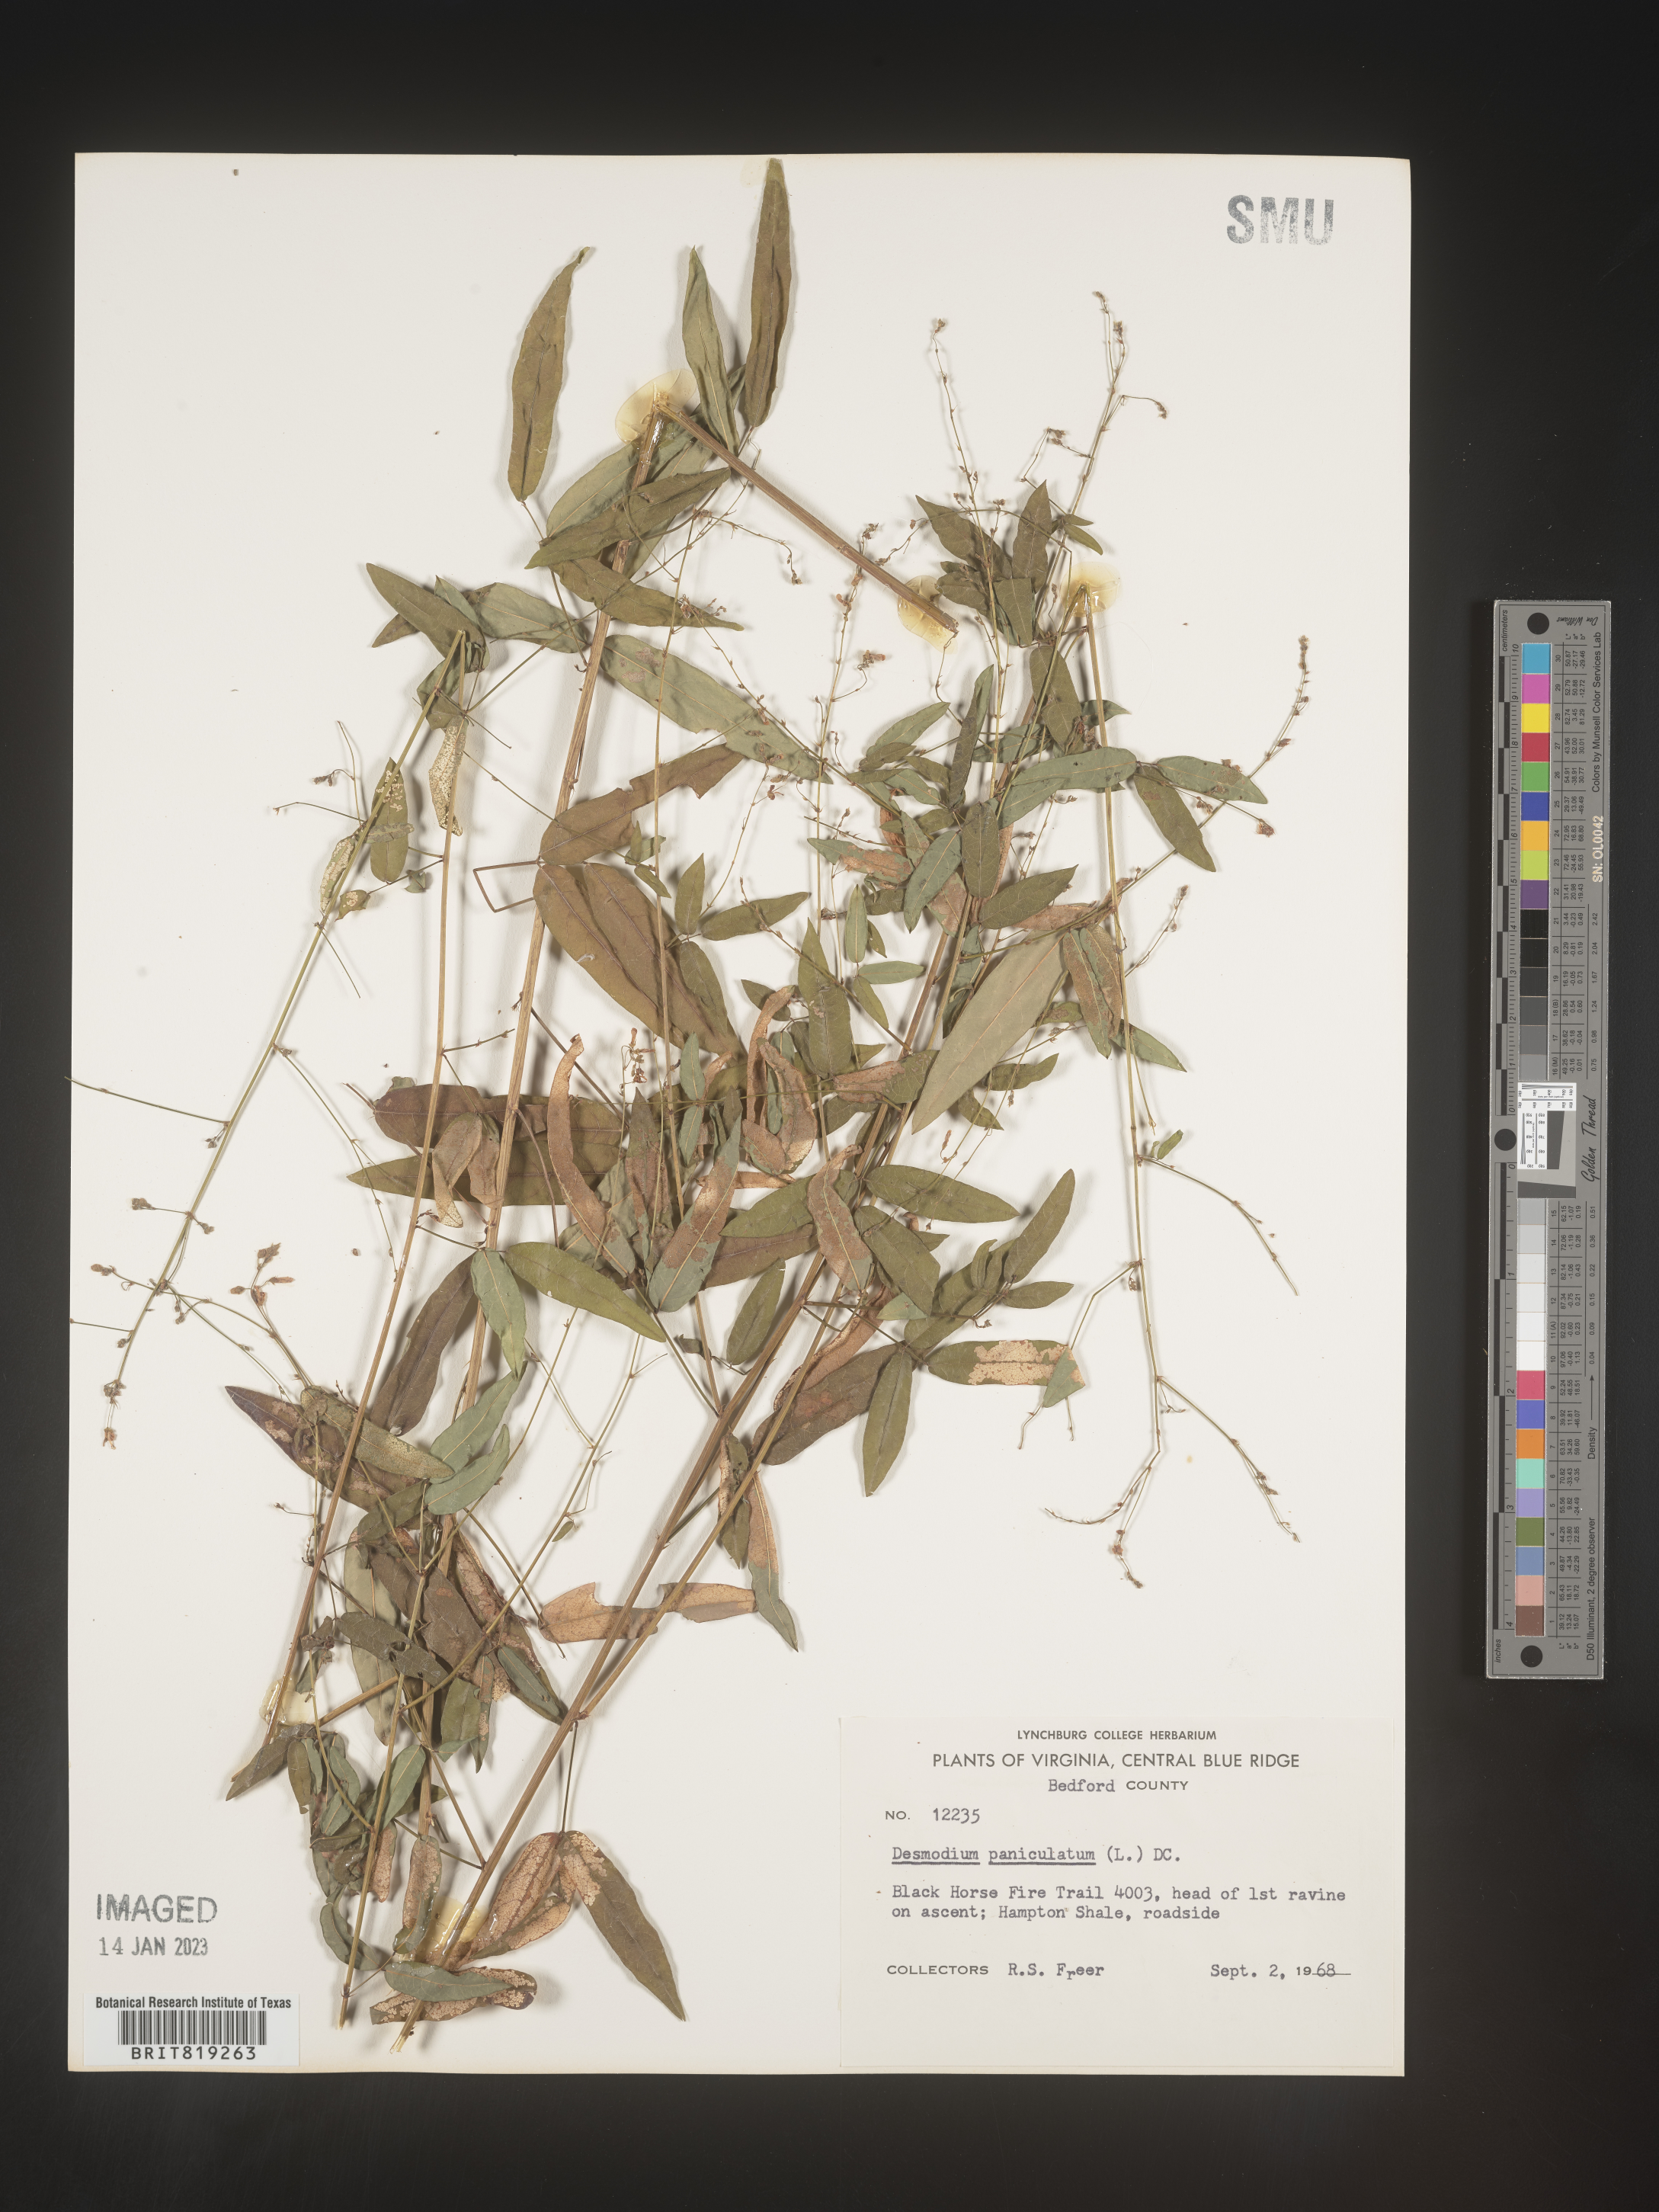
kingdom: Plantae
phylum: Tracheophyta
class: Magnoliopsida
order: Fabales
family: Fabaceae
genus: Desmodium
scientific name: Desmodium paniculatum
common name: Panicled tick-clover
